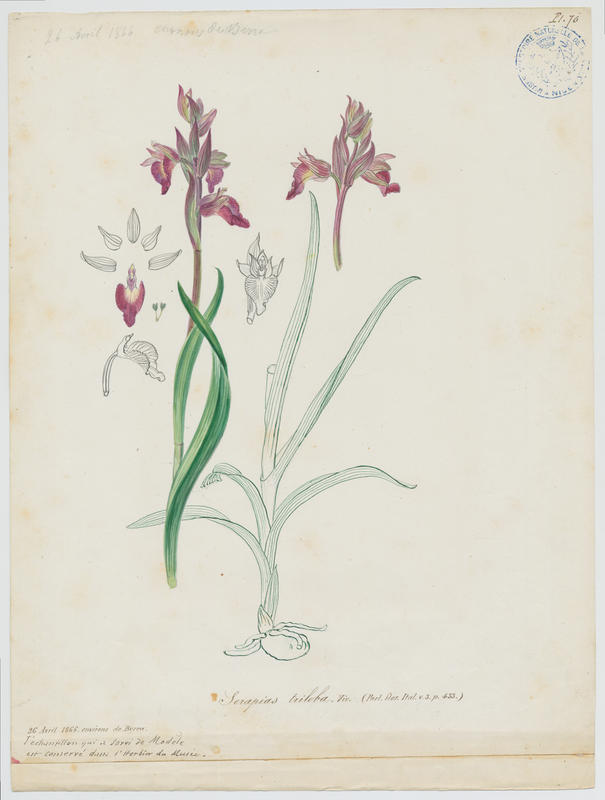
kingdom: Plantae
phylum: Tracheophyta
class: Liliopsida
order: Asparagales
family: Orchidaceae
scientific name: Orchidaceae
